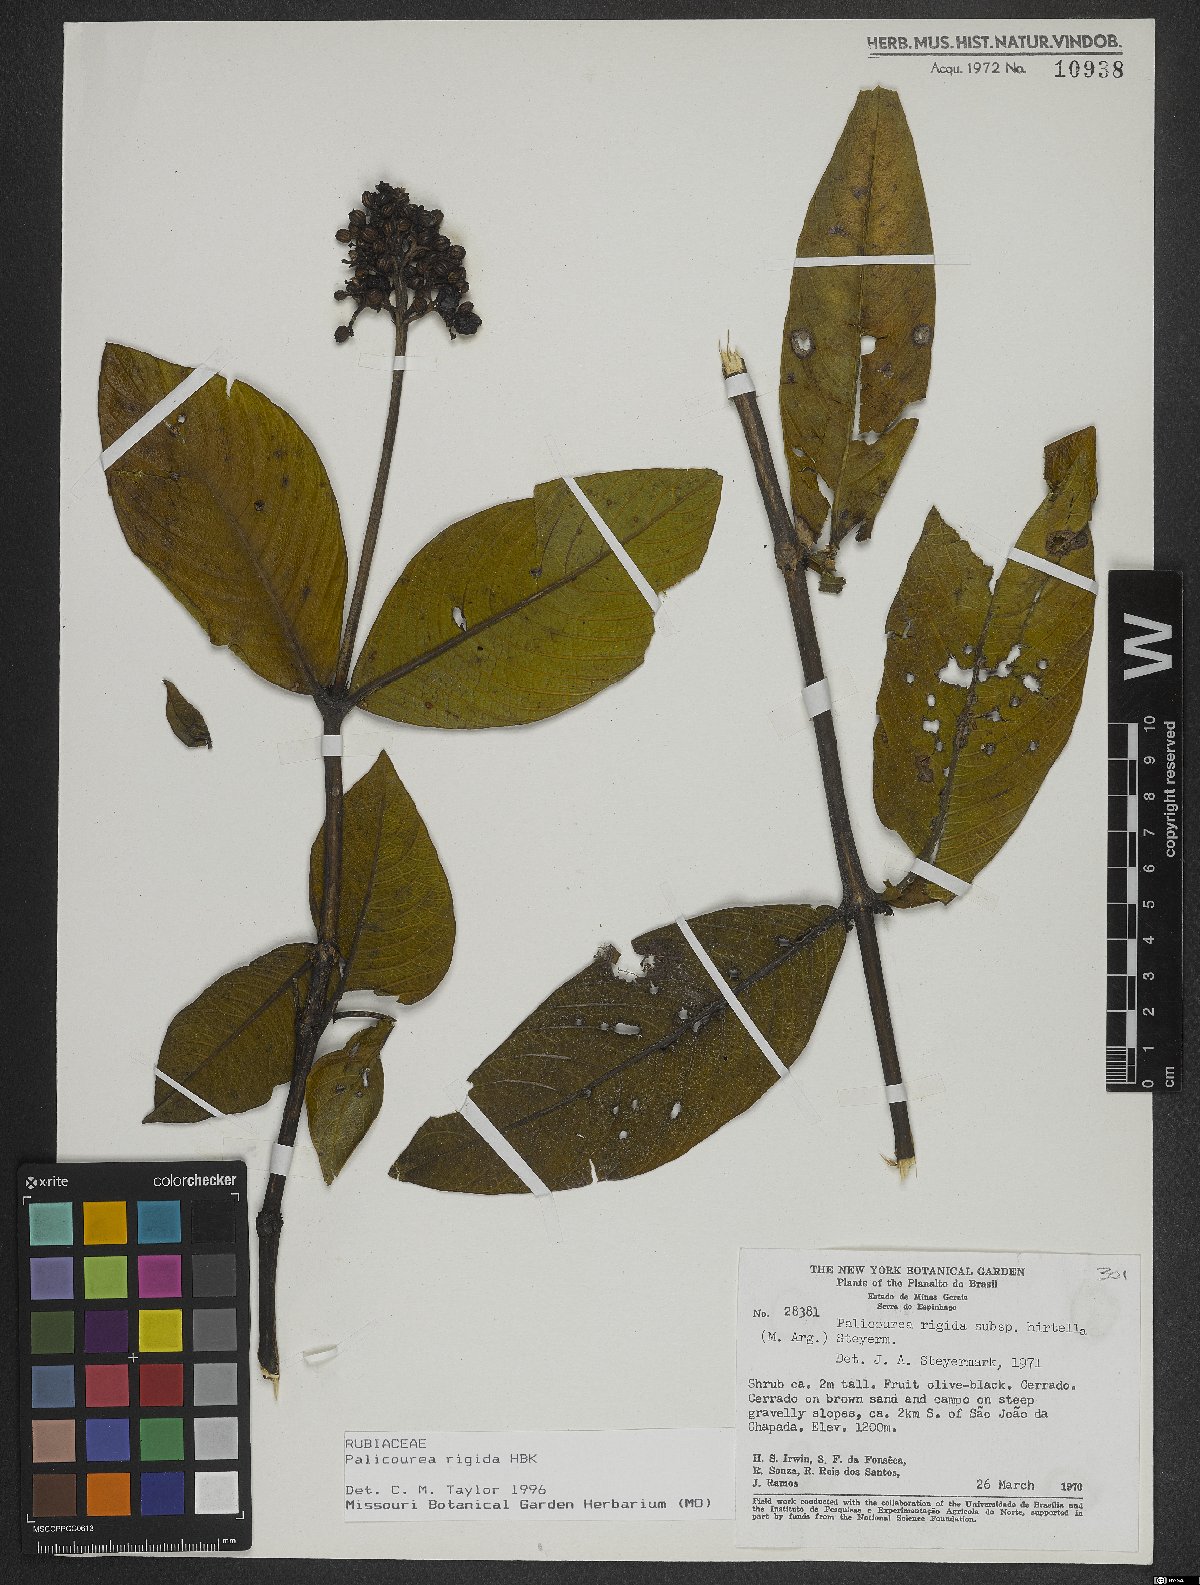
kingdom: Plantae
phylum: Tracheophyta
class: Magnoliopsida
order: Gentianales
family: Rubiaceae
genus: Palicourea
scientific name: Palicourea rigida
